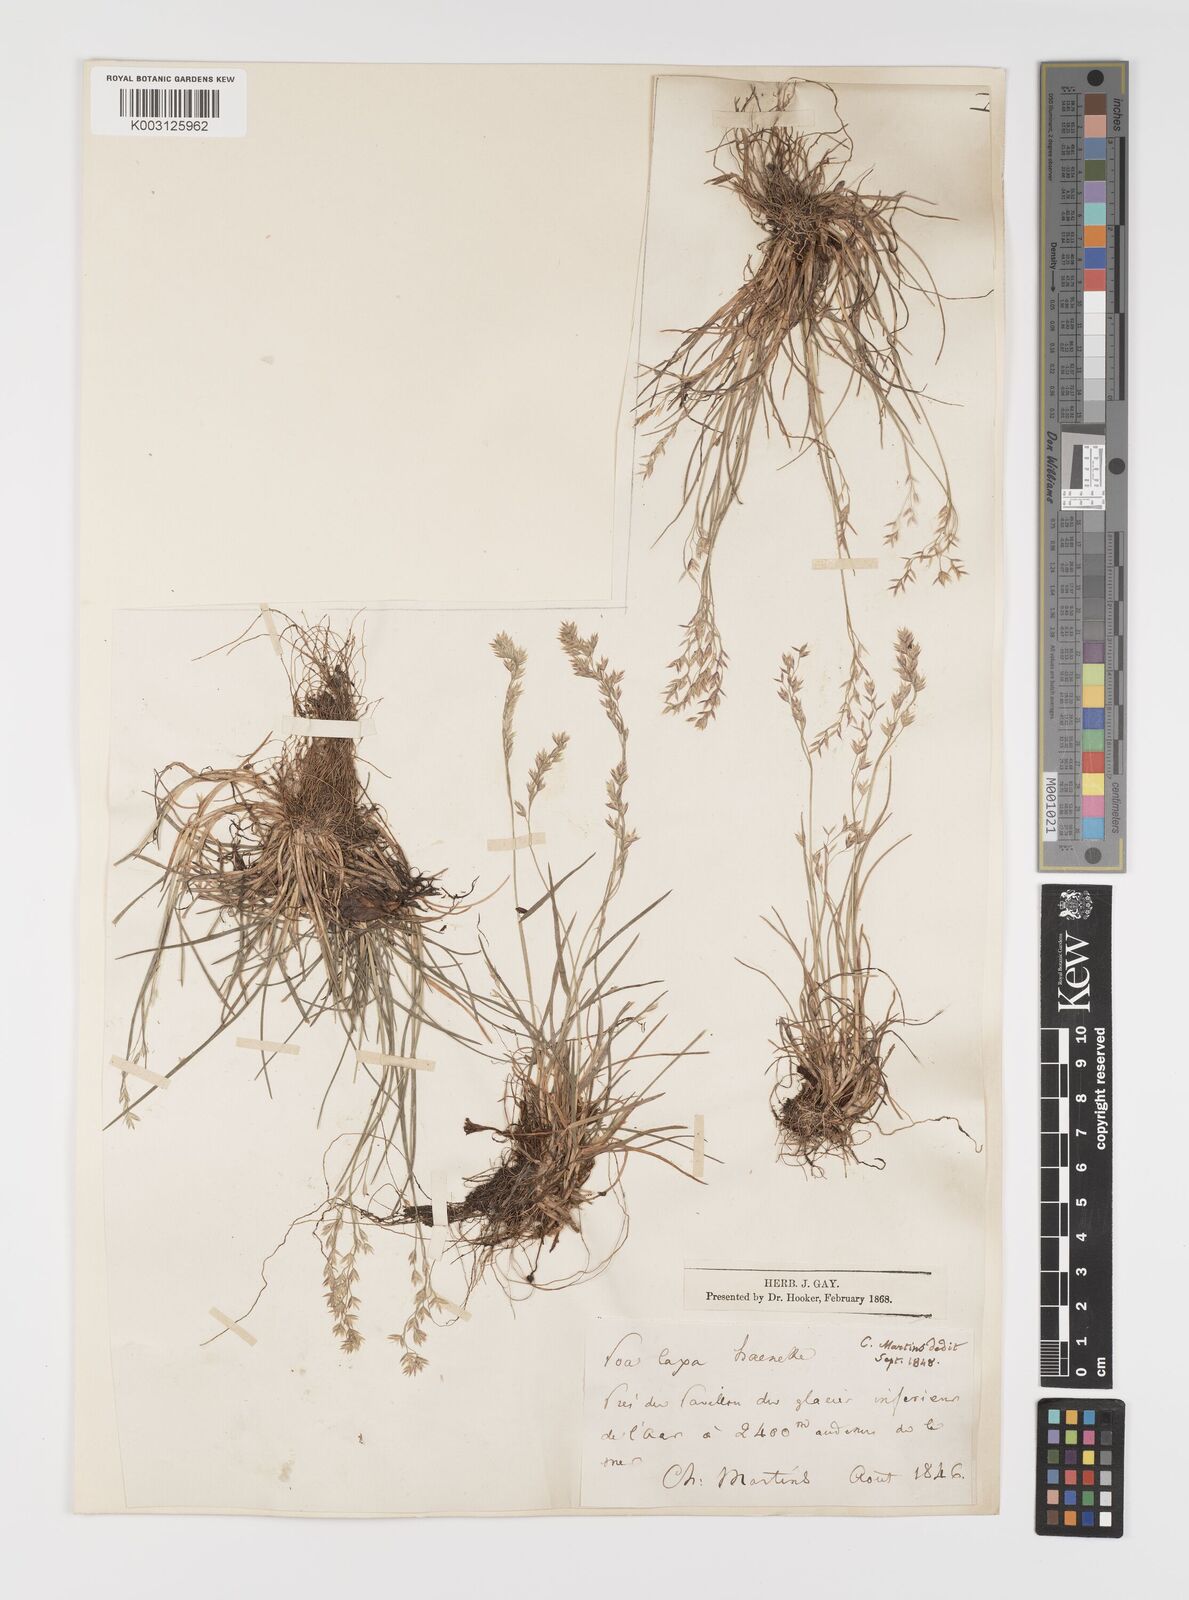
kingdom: Plantae
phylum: Tracheophyta
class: Liliopsida
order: Poales
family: Poaceae
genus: Poa
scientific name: Poa laxa
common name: Lax bluegrass
